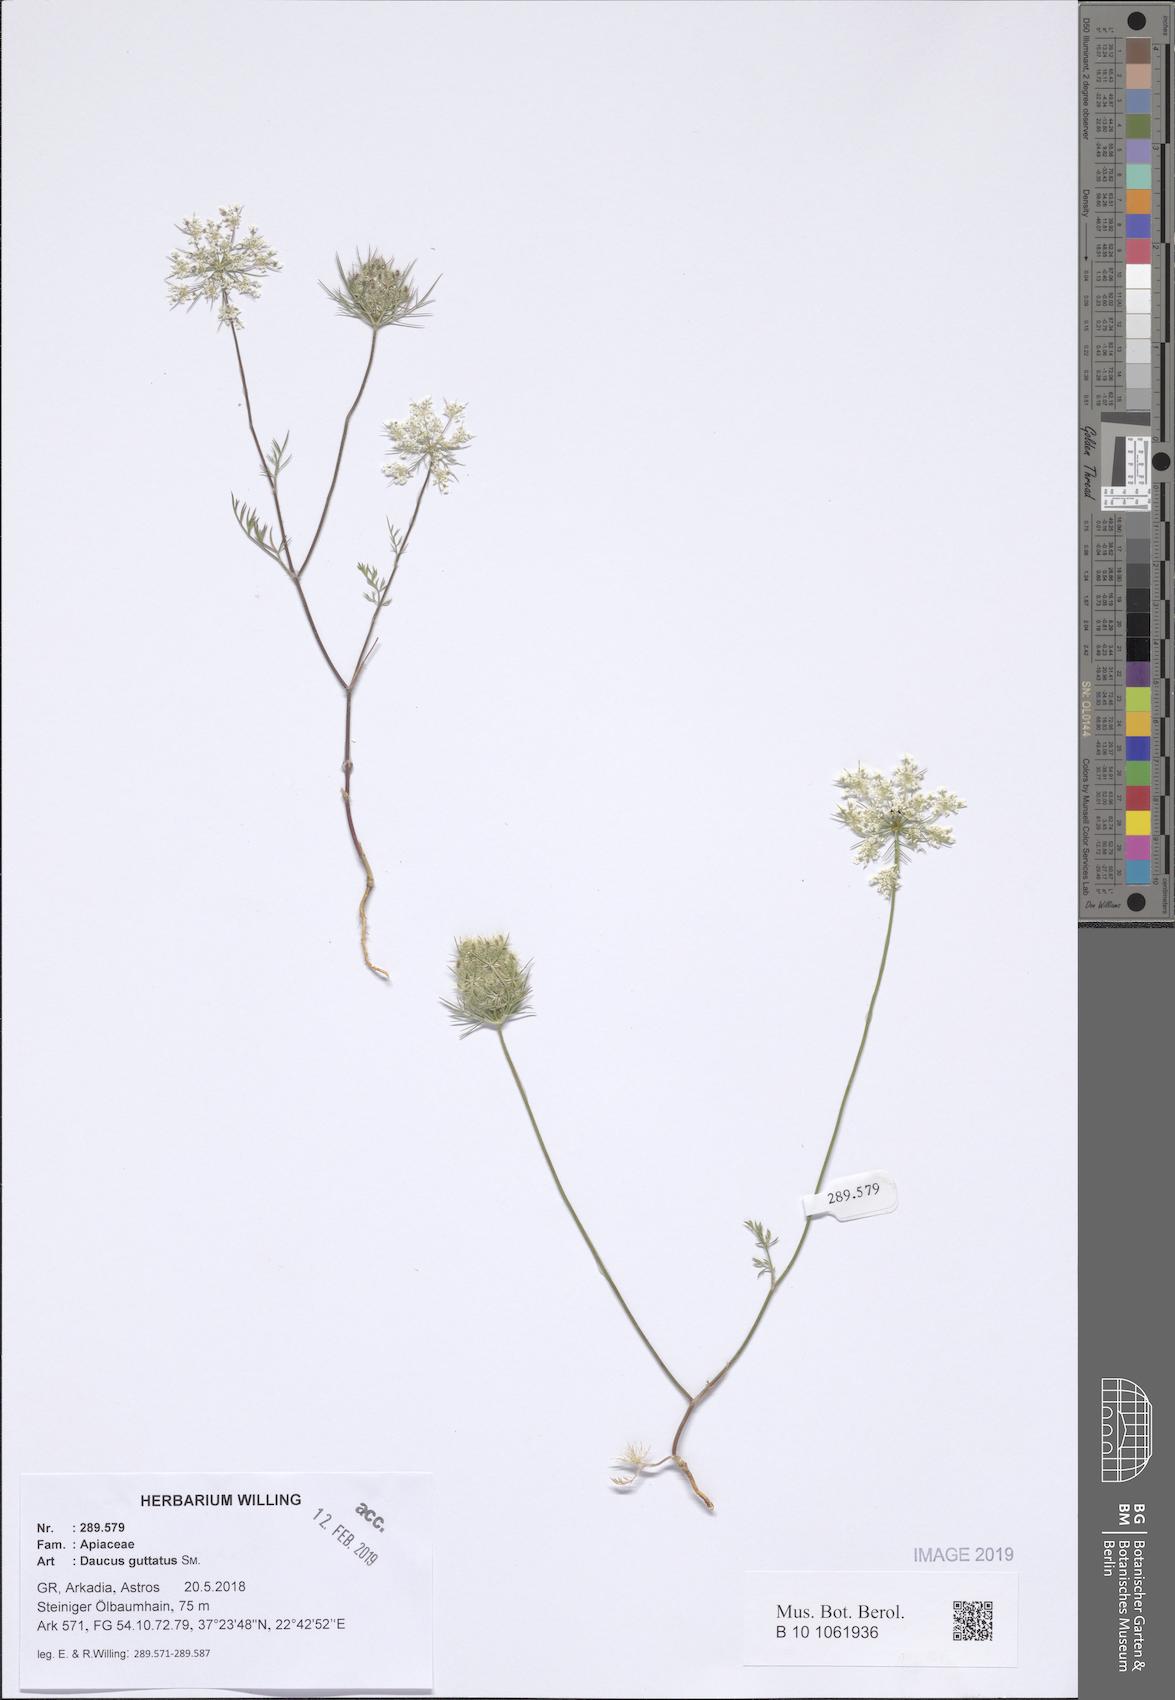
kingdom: Plantae
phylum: Tracheophyta
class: Magnoliopsida
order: Apiales
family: Apiaceae
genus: Daucus
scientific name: Daucus guttatus
